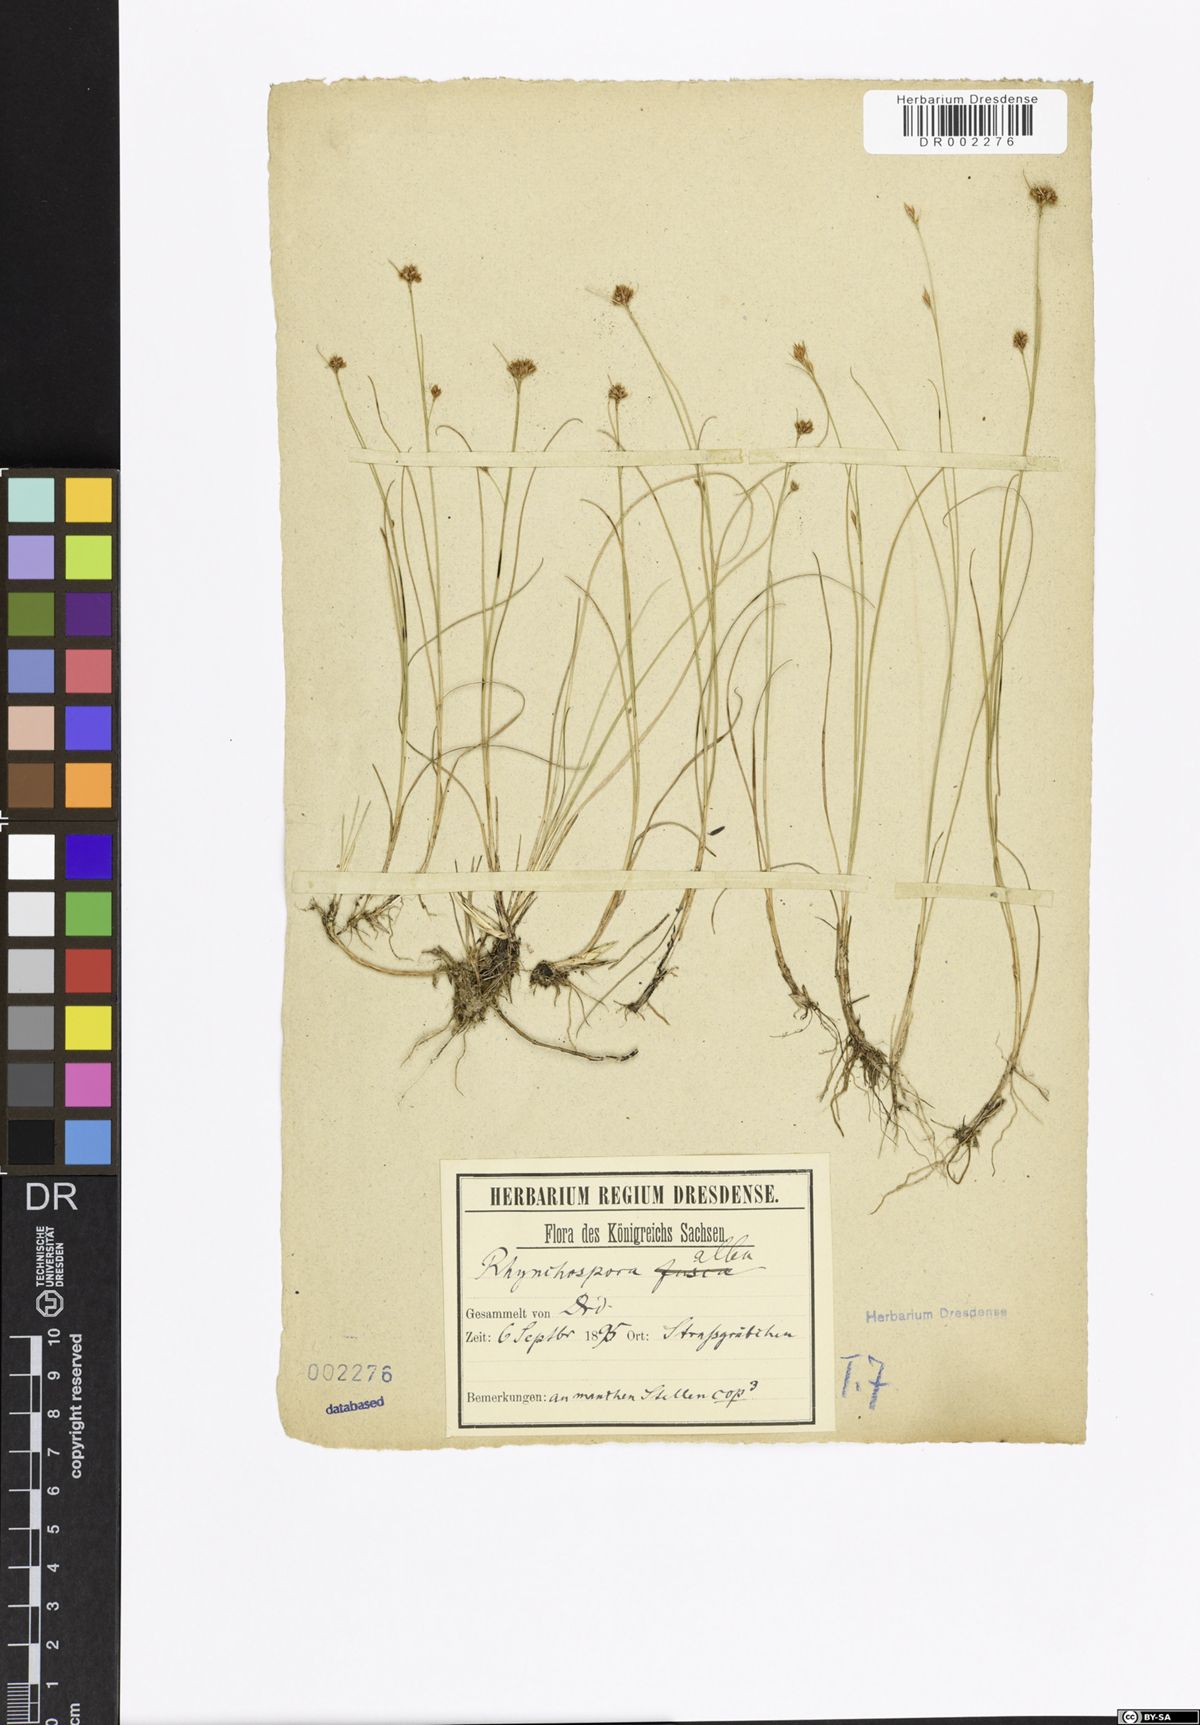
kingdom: Plantae
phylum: Tracheophyta
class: Liliopsida
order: Poales
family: Cyperaceae
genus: Rhynchospora
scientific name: Rhynchospora alba
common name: White beak-sedge
